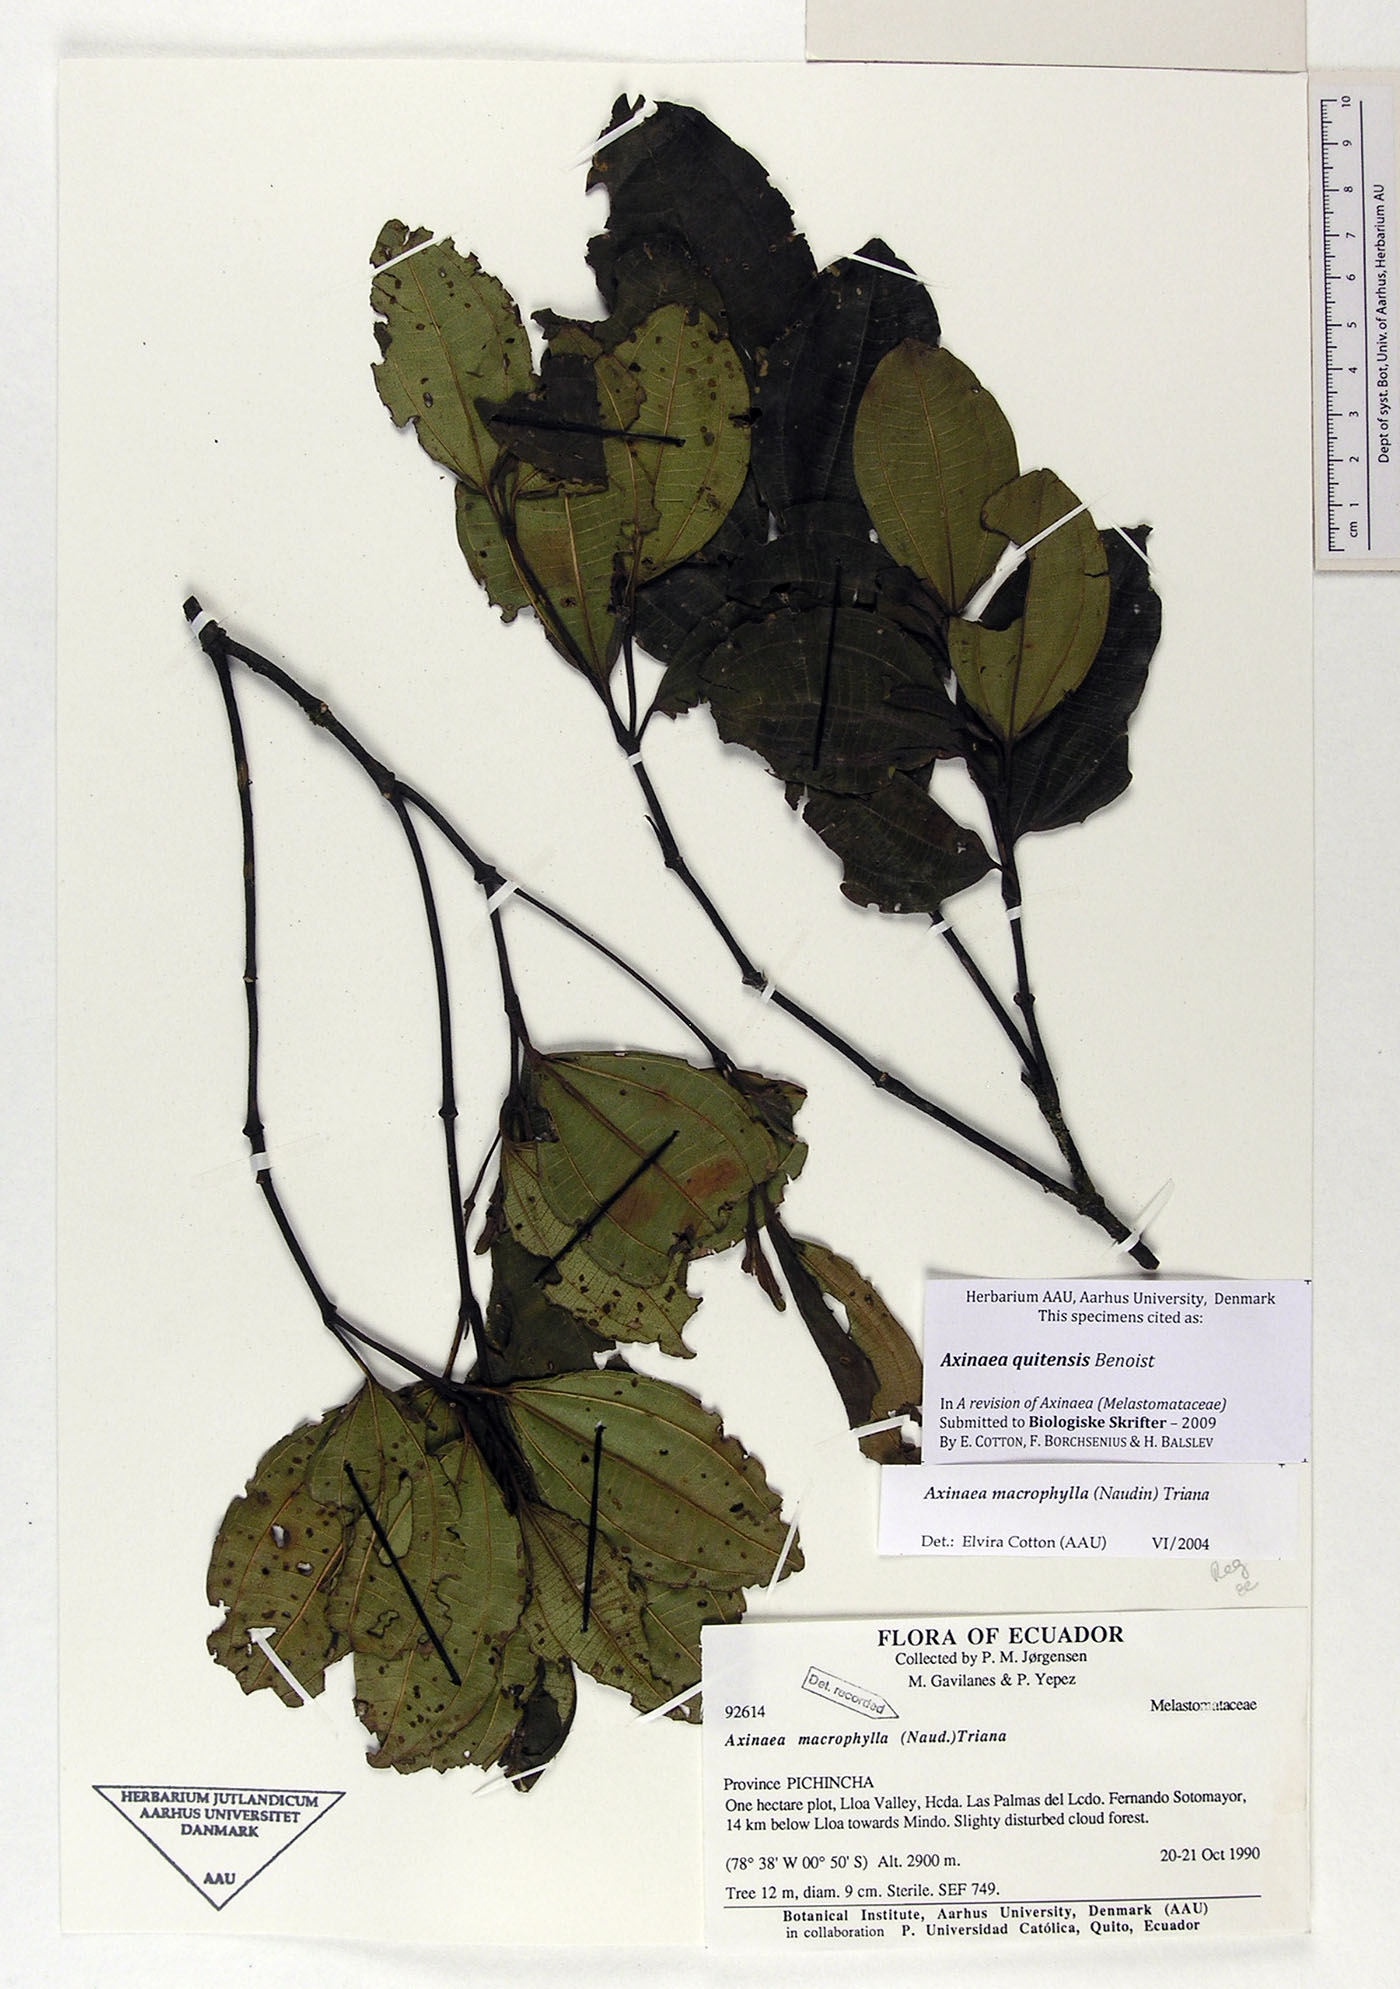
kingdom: Plantae
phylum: Tracheophyta
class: Magnoliopsida
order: Myrtales
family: Melastomataceae
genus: Axinaea
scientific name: Axinaea quitensis
